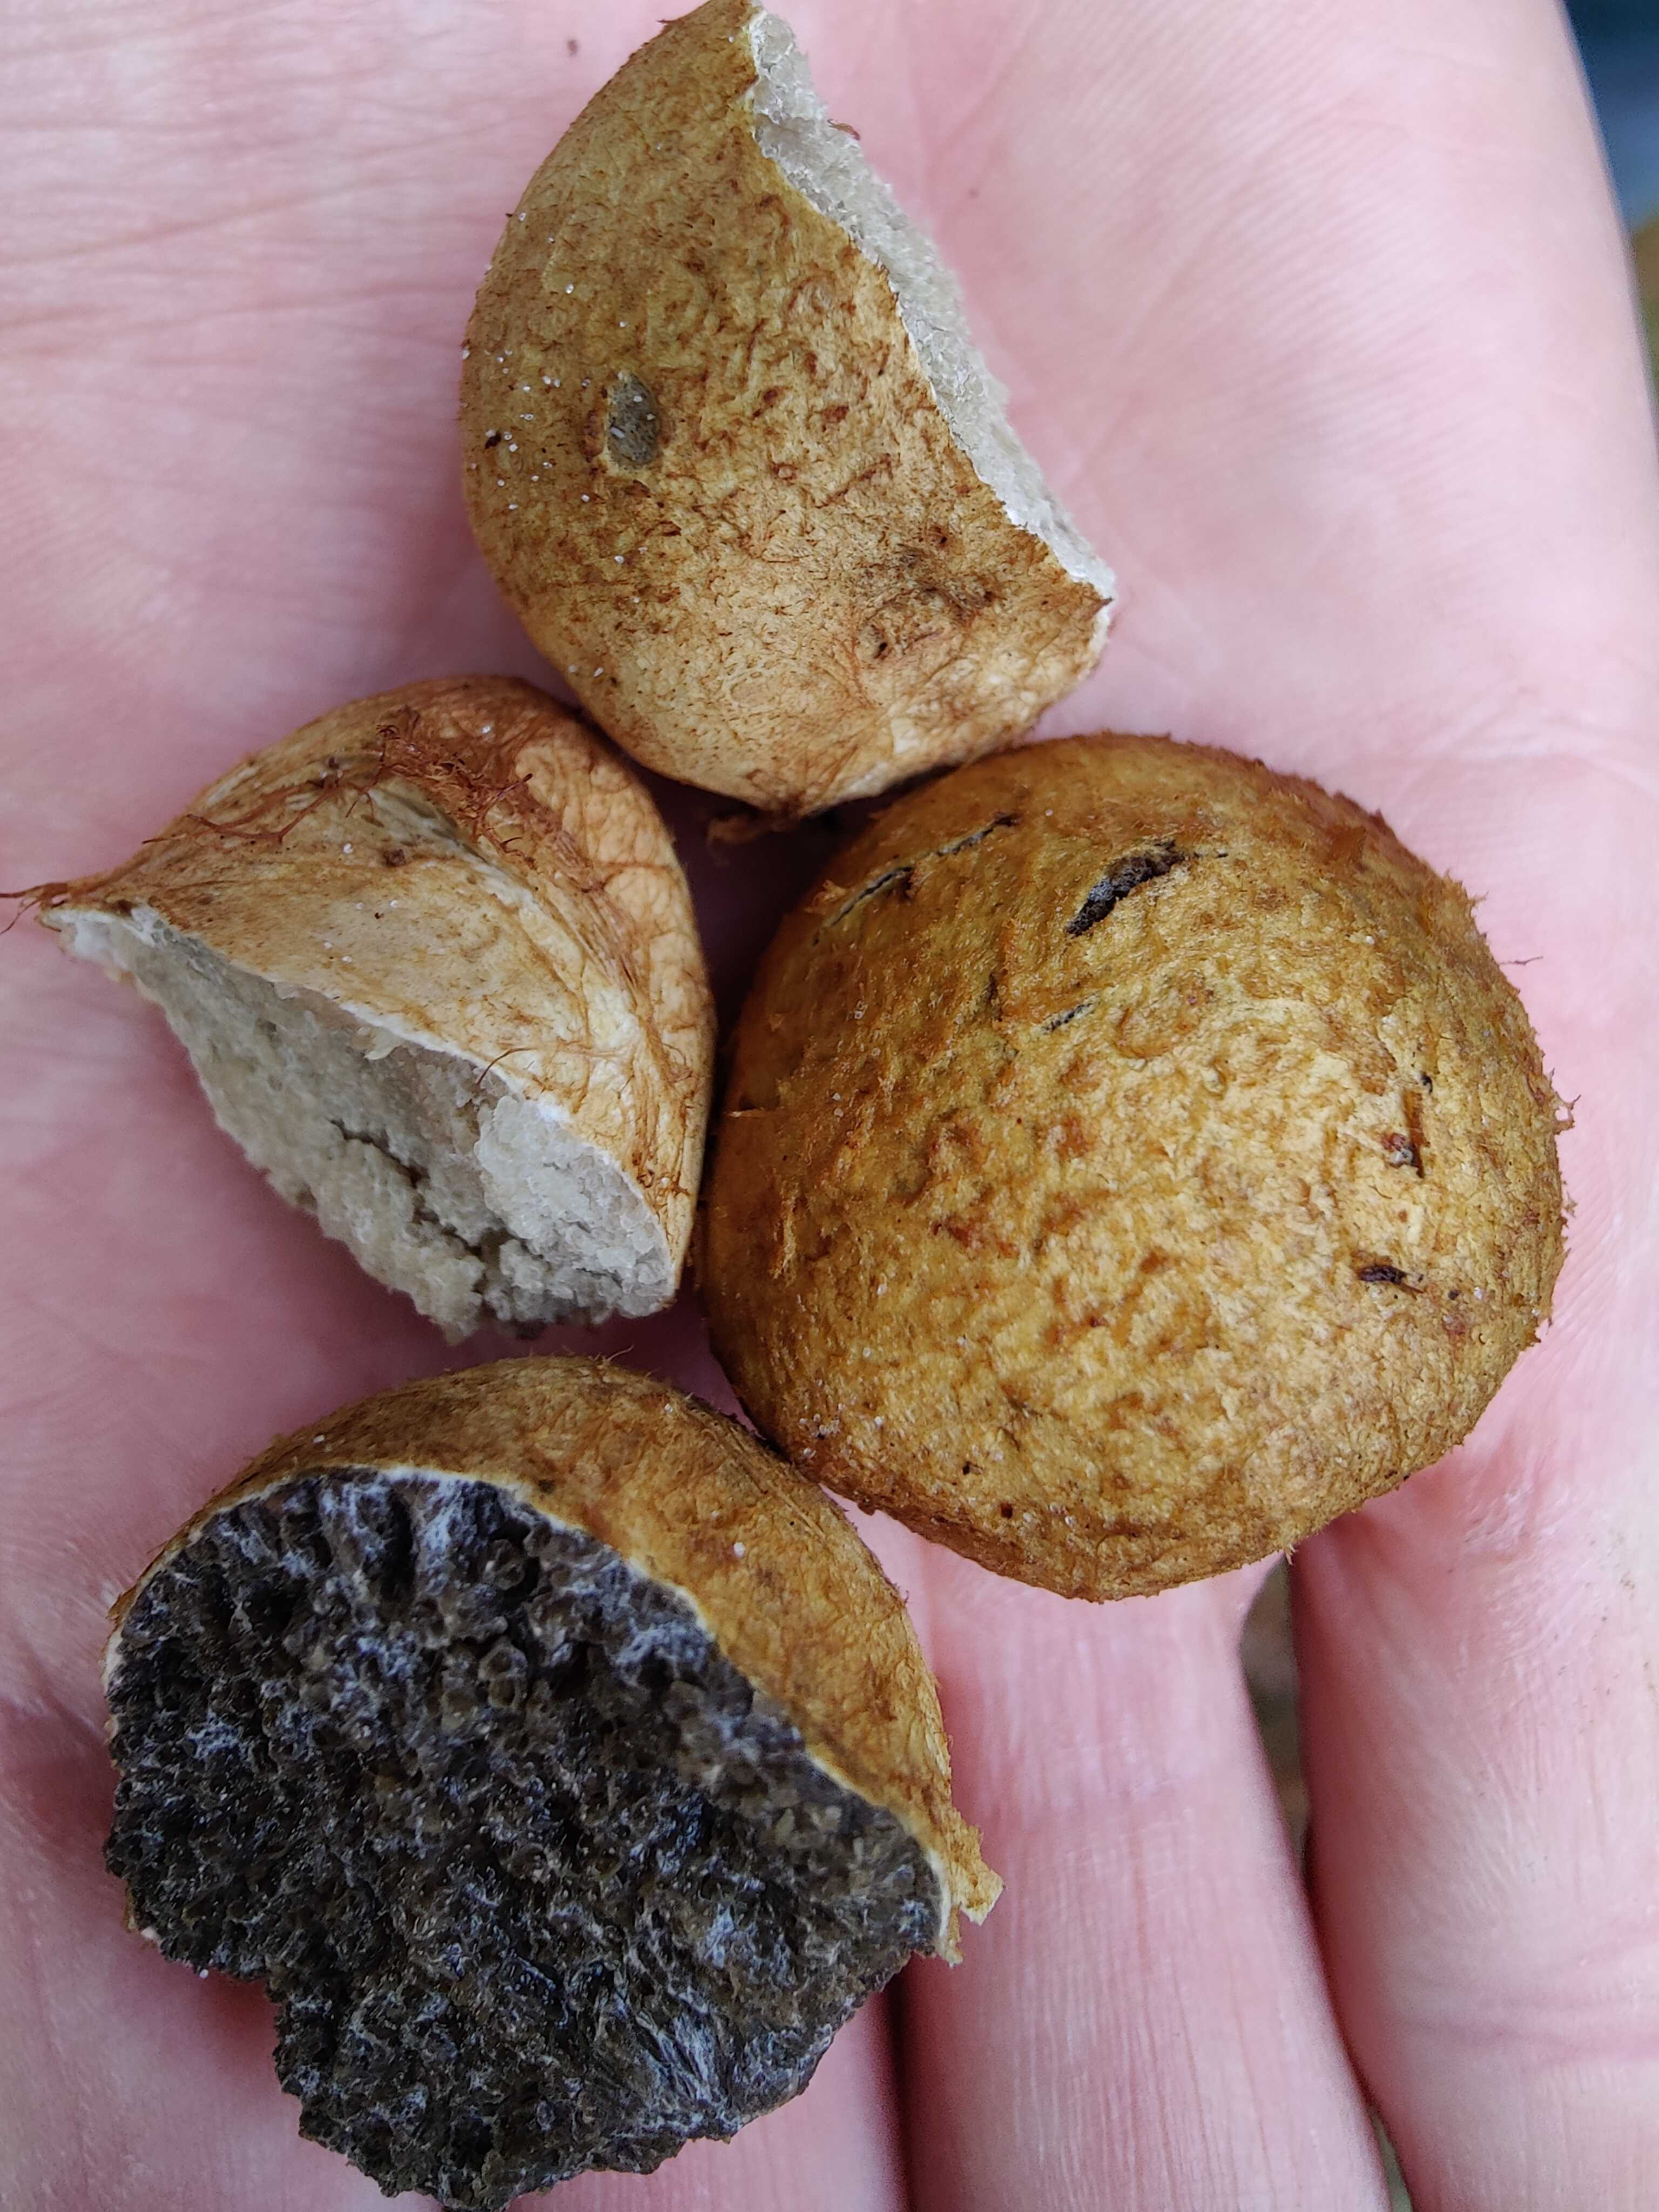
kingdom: Fungi
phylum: Basidiomycota
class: Agaricomycetes
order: Boletales
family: Rhizopogonaceae
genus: Rhizopogon
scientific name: Rhizopogon
